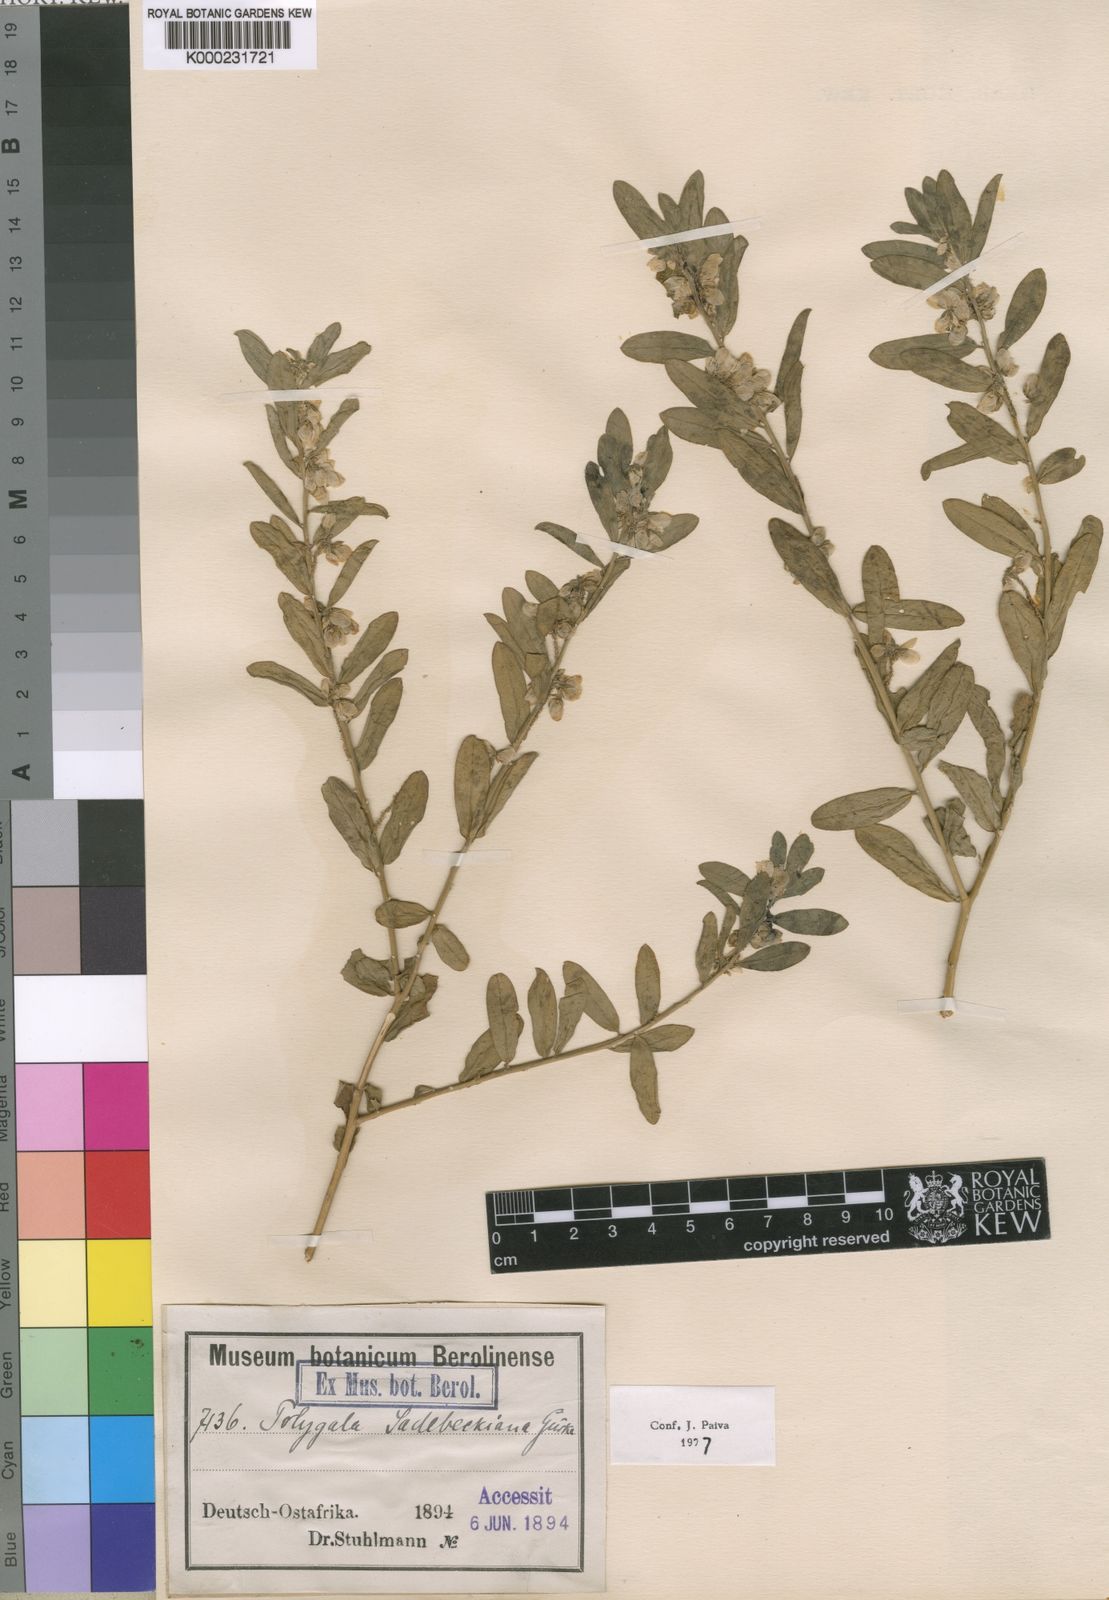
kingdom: Plantae
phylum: Tracheophyta
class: Magnoliopsida
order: Fabales
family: Polygalaceae
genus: Polygala
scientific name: Polygala
